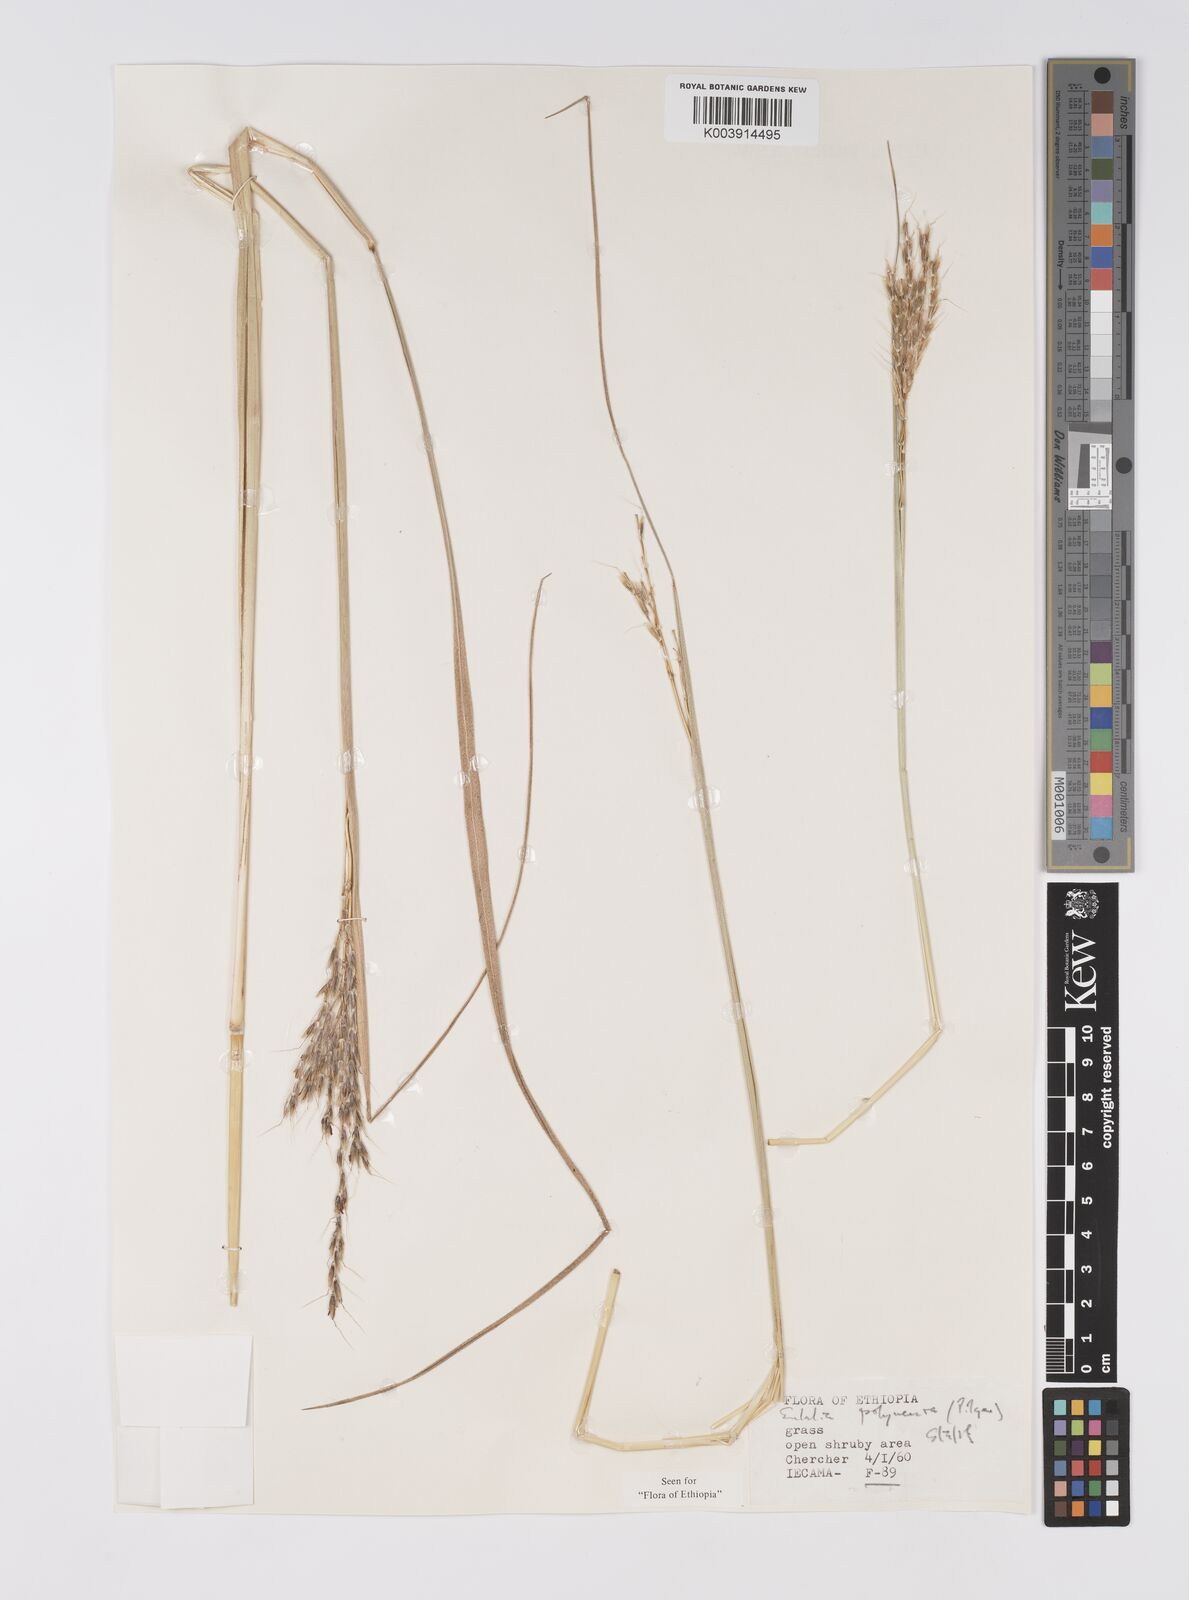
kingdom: Plantae
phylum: Tracheophyta
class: Liliopsida
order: Poales
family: Poaceae
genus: Eulalia
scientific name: Eulalia polyneura
